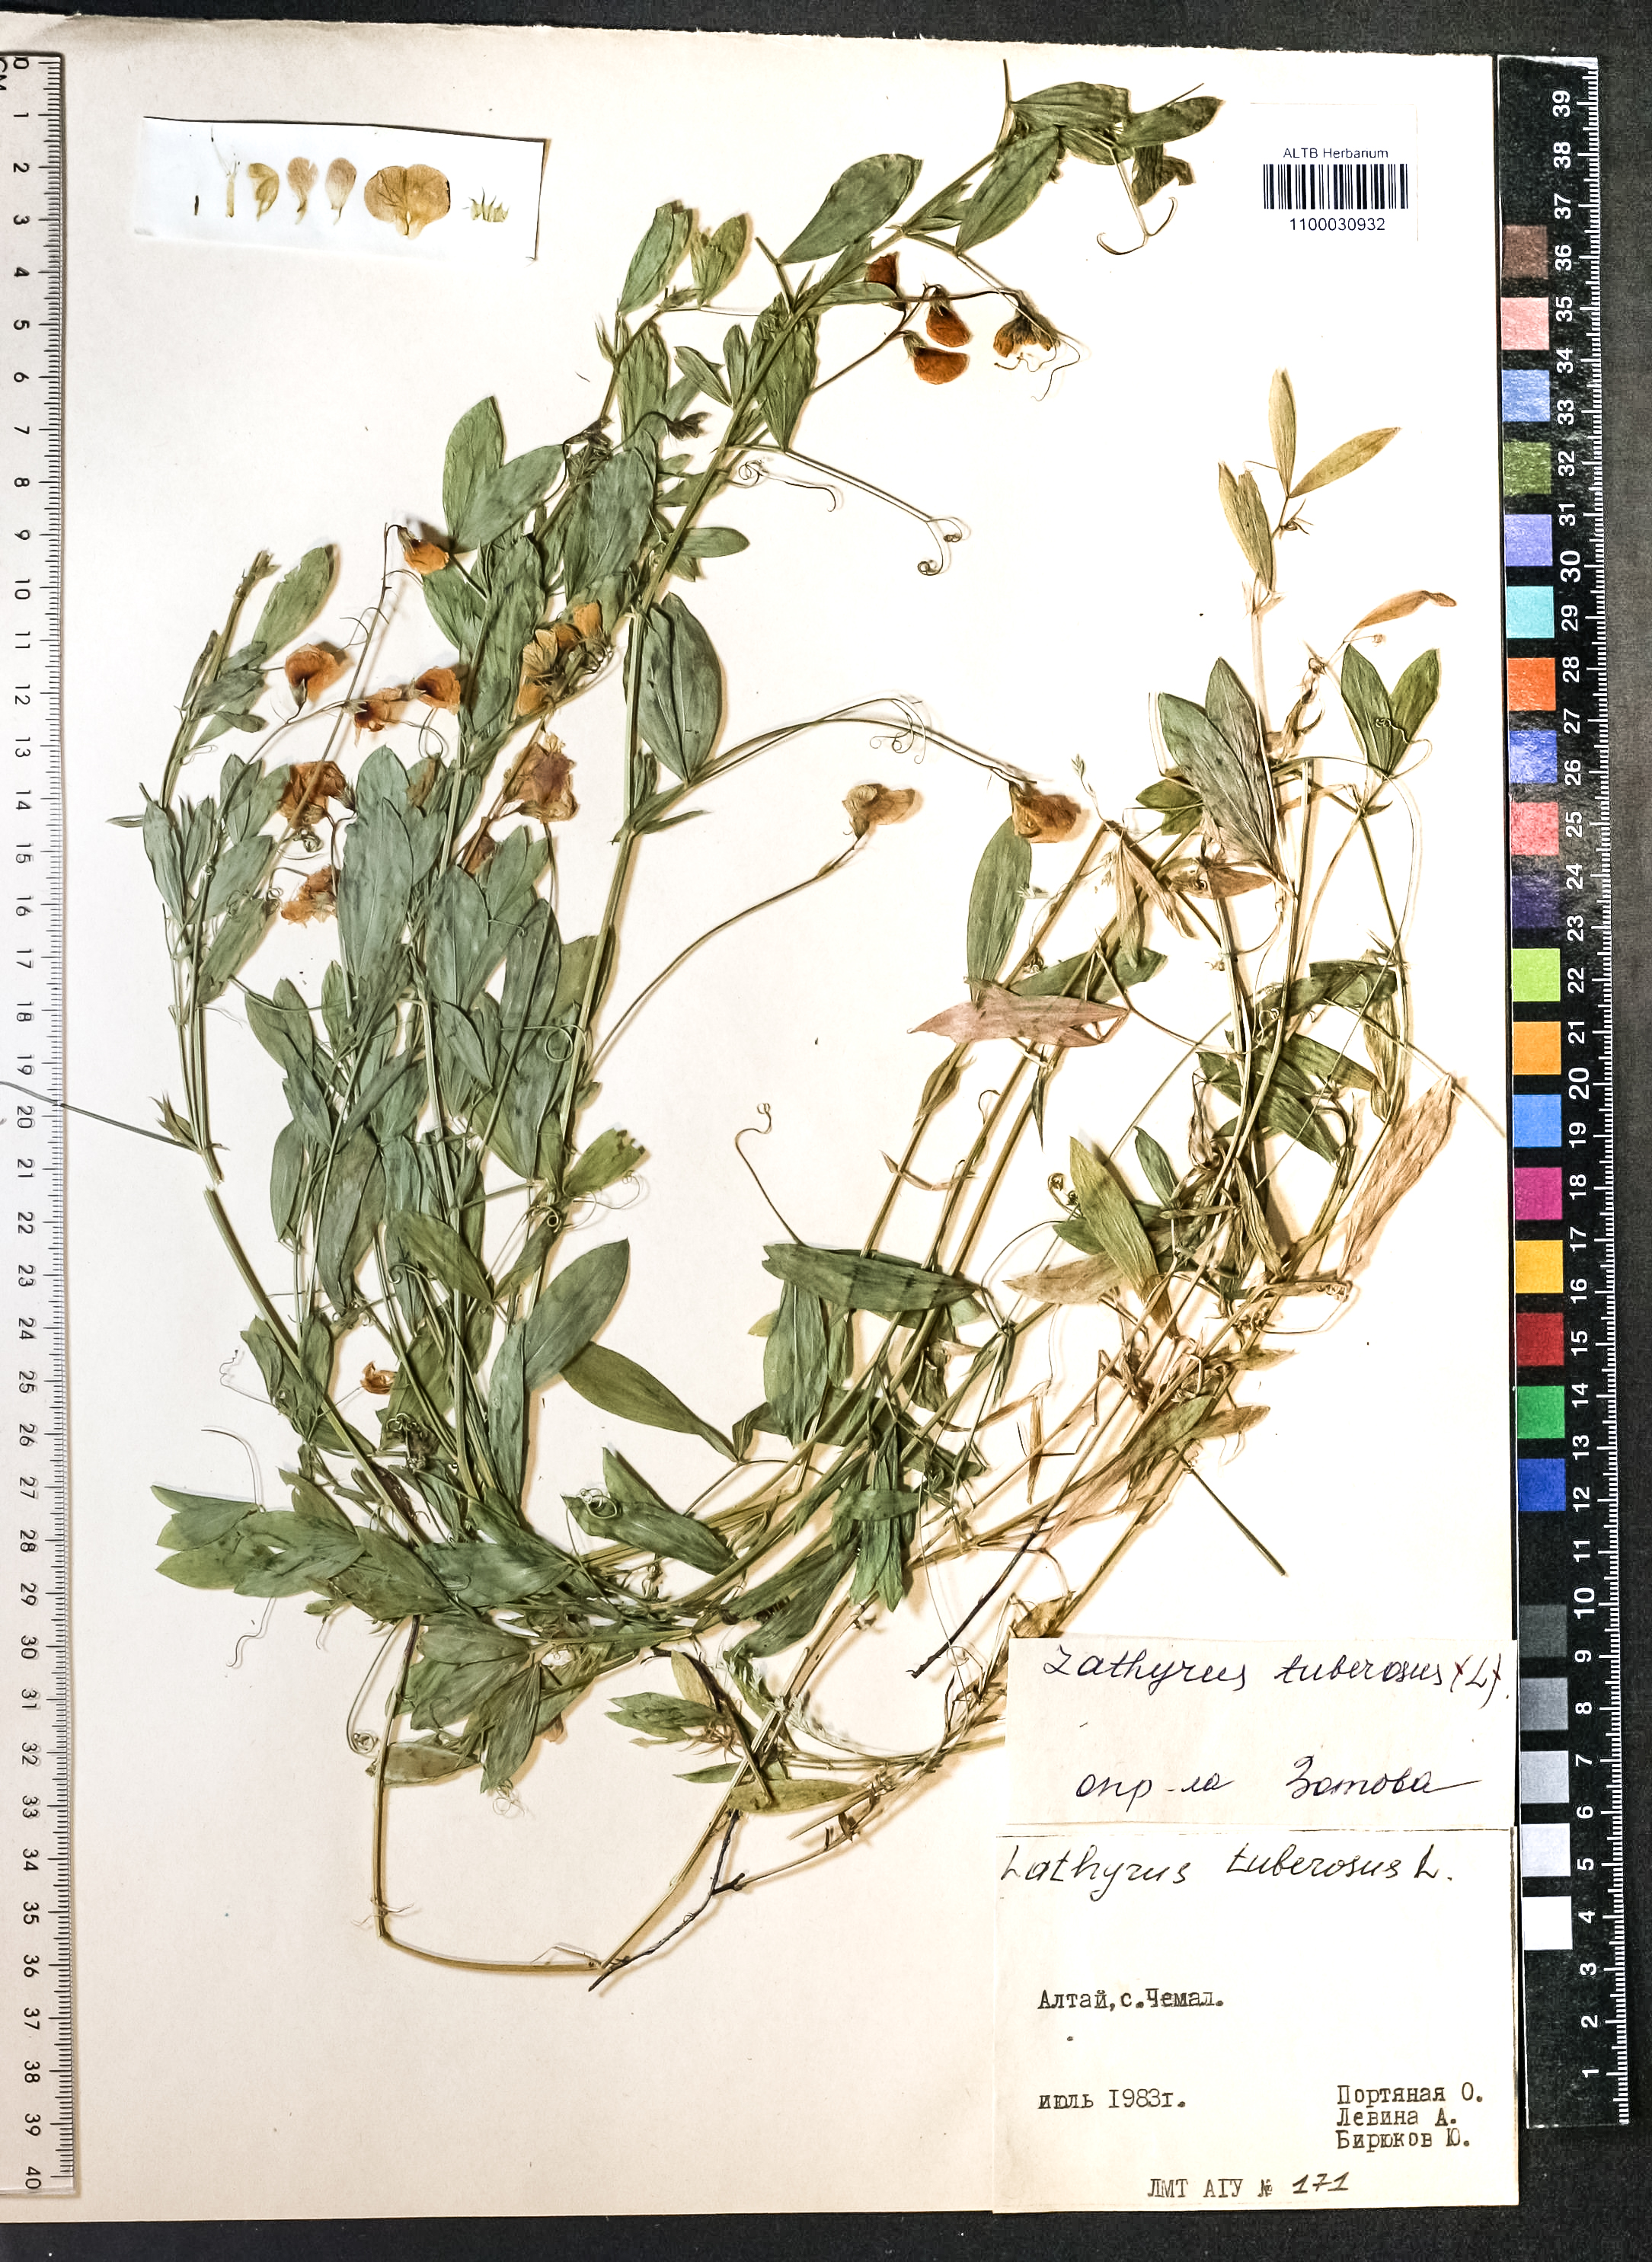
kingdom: Plantae
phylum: Tracheophyta
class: Magnoliopsida
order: Fabales
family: Fabaceae
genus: Lathyrus
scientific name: Lathyrus tuberosus
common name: Tuberous pea
